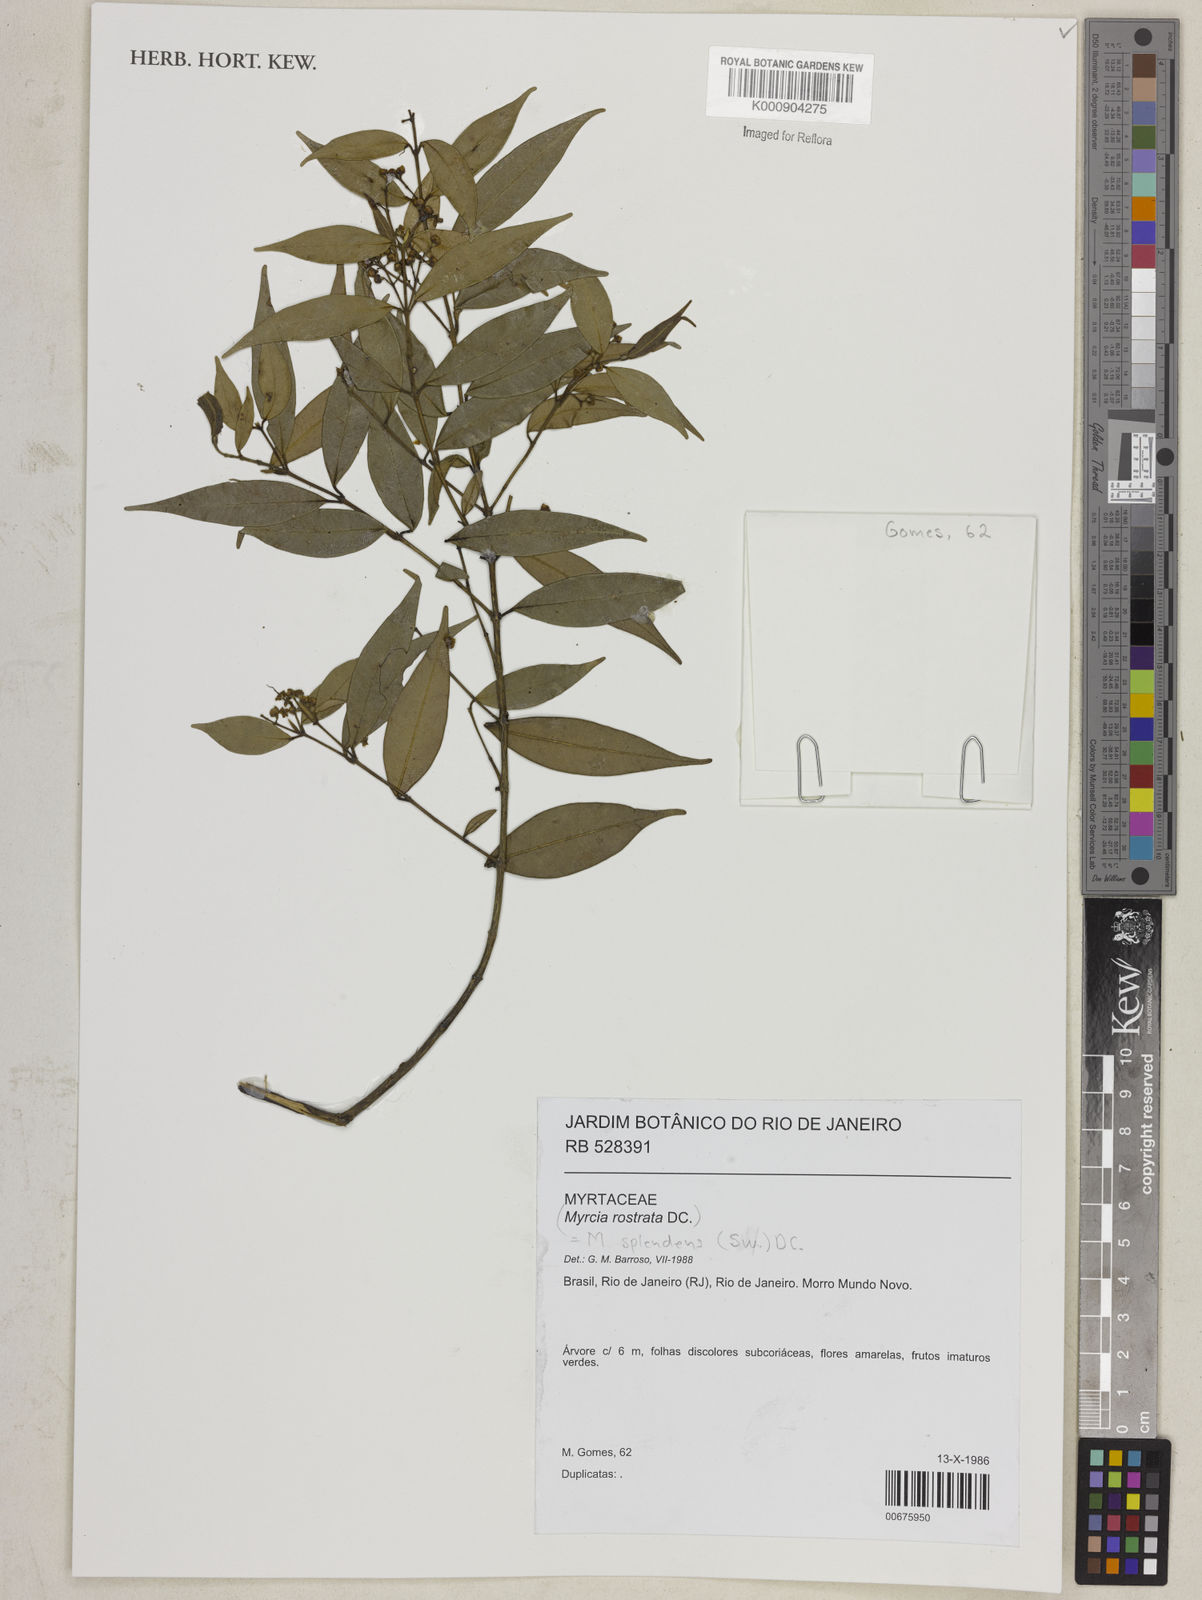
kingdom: Plantae
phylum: Tracheophyta
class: Magnoliopsida
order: Myrtales
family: Myrtaceae
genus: Myrcia
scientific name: Myrcia splendens
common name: Surinam cherry
